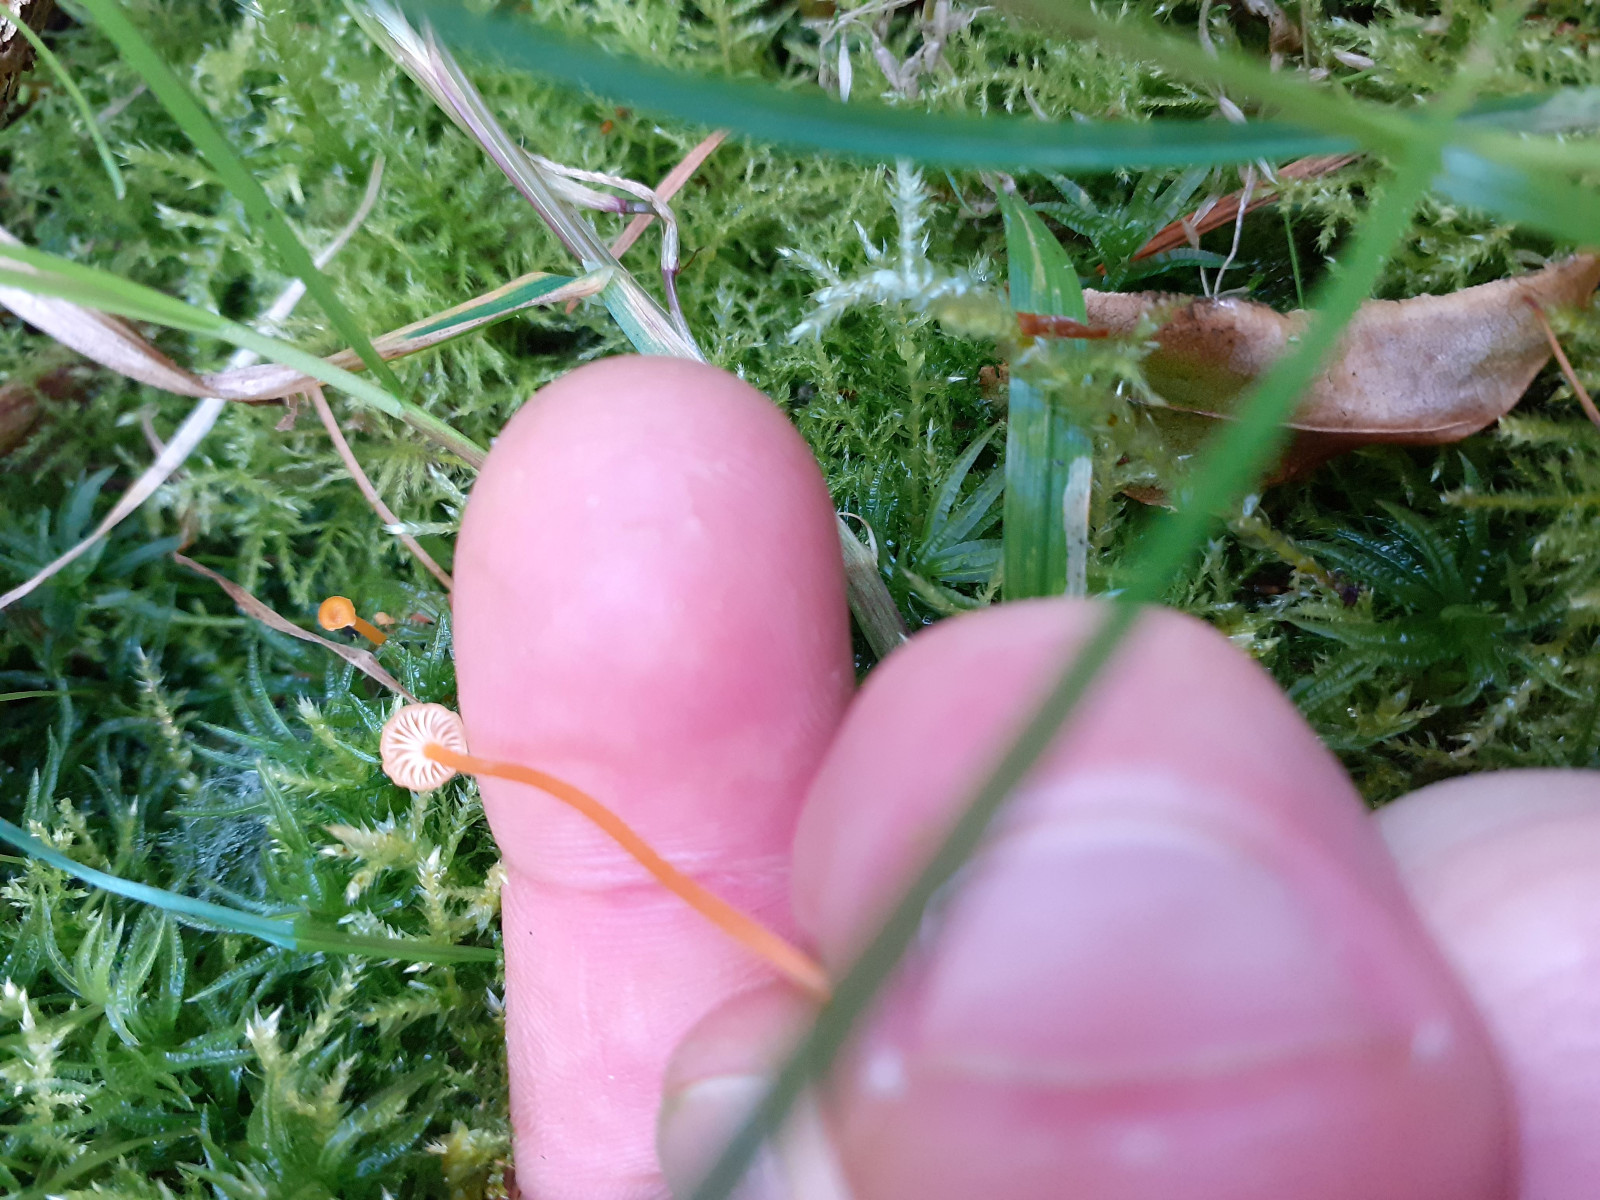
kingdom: Fungi
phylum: Basidiomycota
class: Agaricomycetes
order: Hymenochaetales
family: Rickenellaceae
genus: Rickenella
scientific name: Rickenella fibula
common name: orange mosnavlehat
